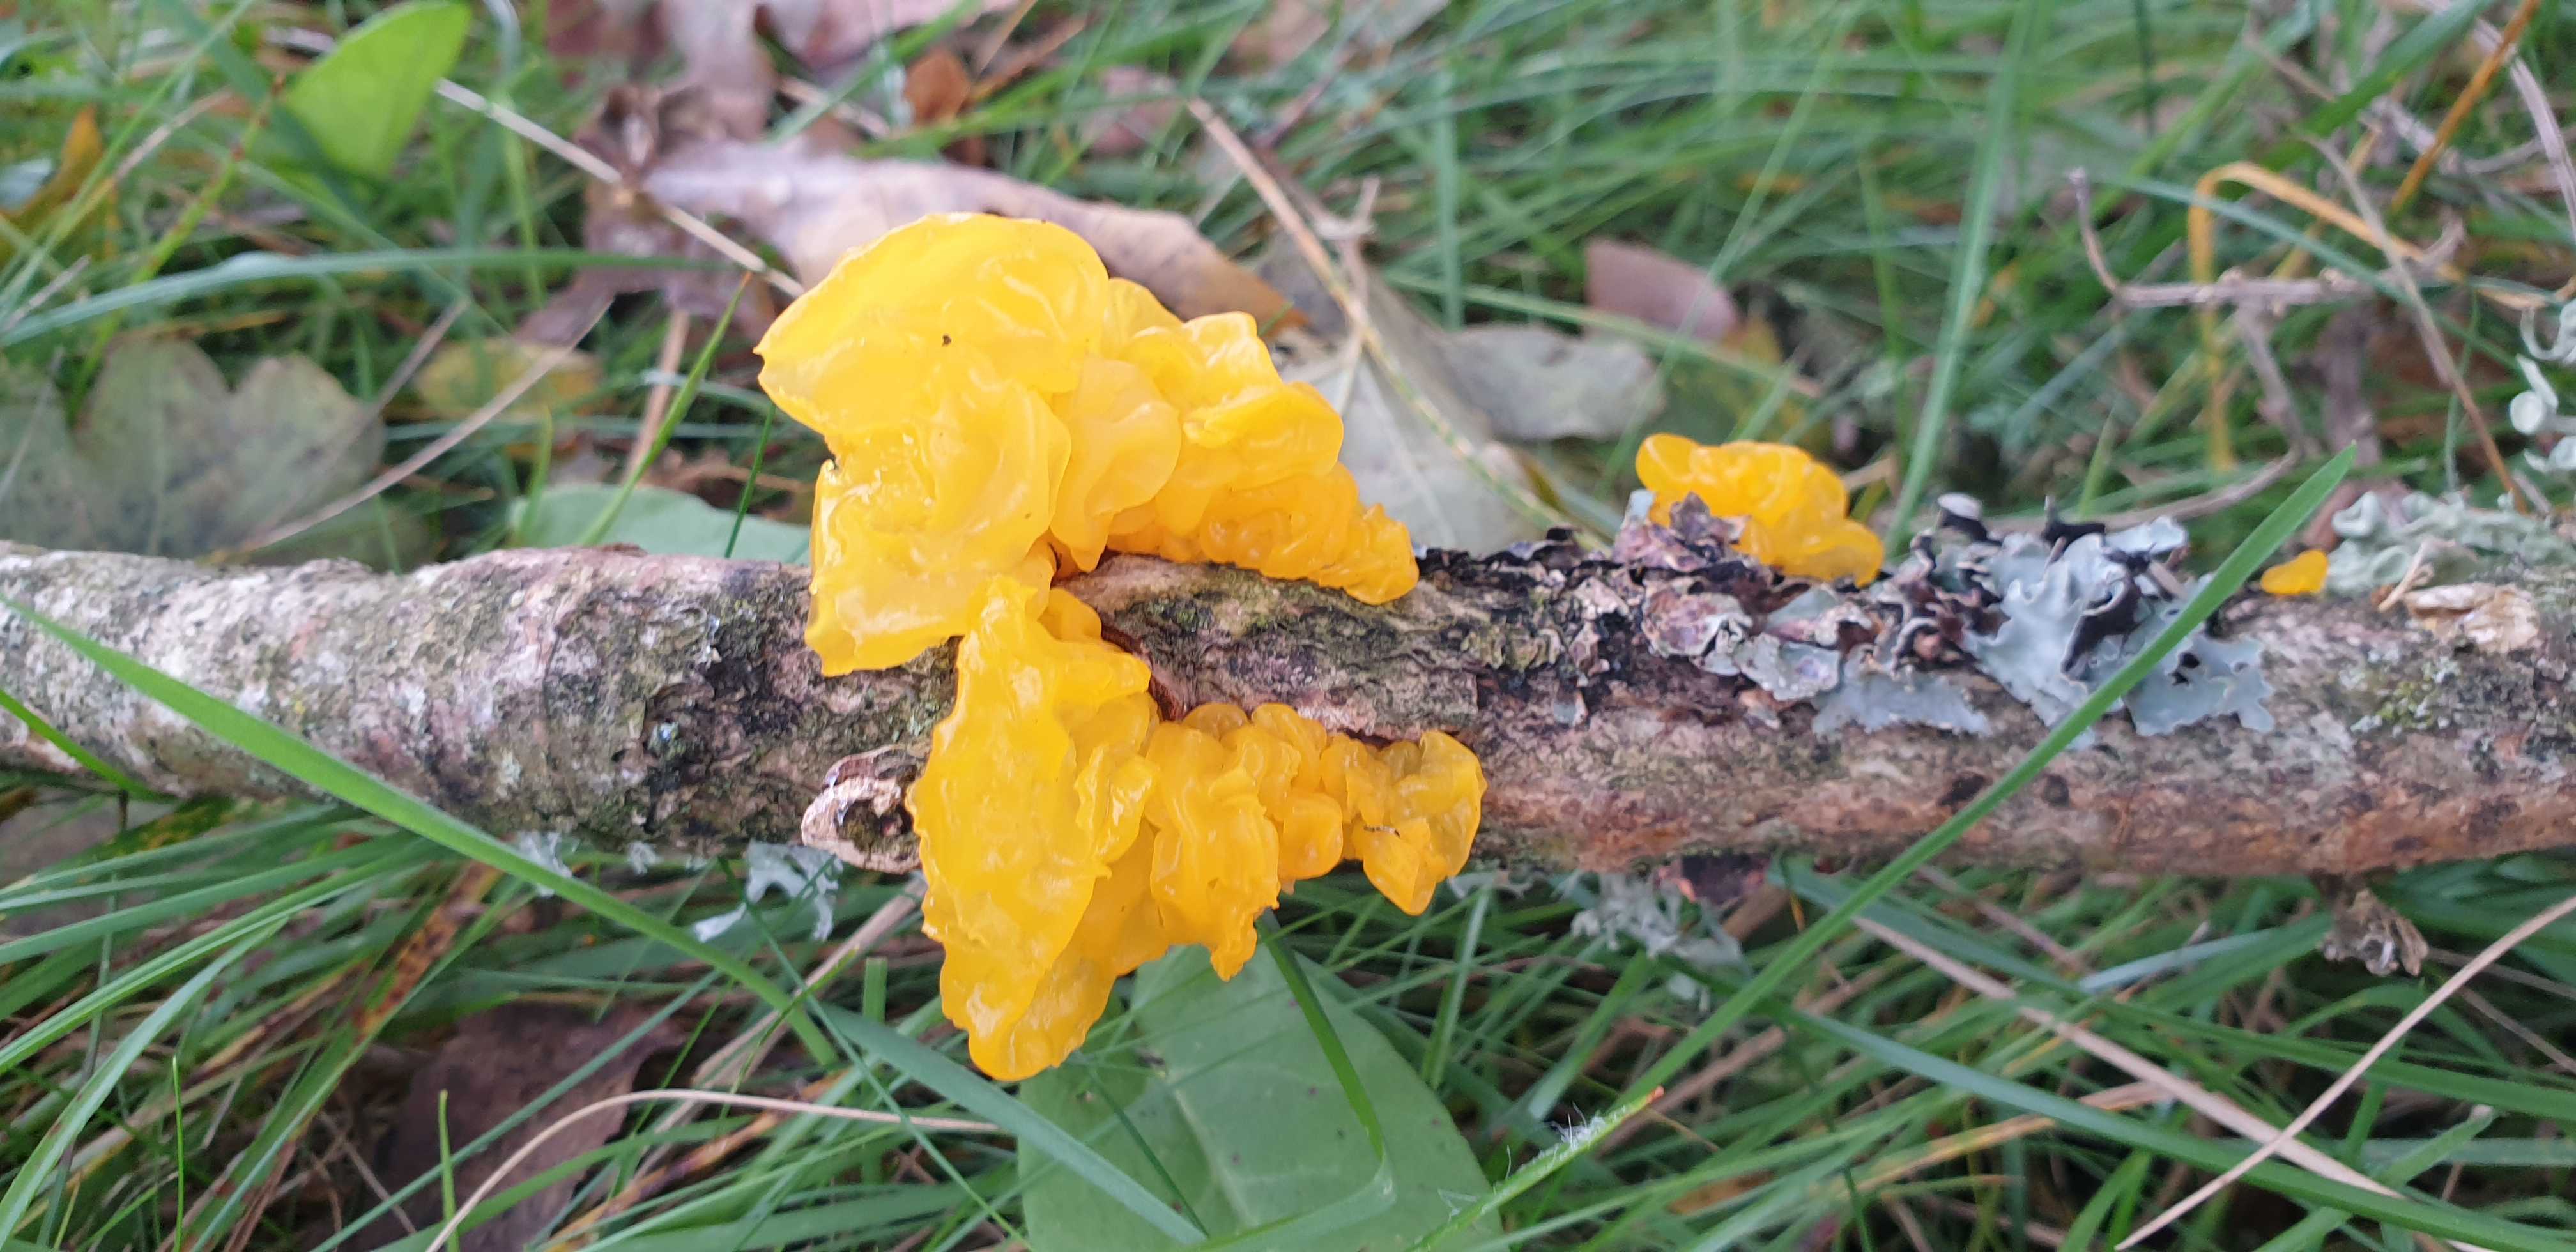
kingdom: Fungi
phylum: Basidiomycota
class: Tremellomycetes
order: Tremellales
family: Tremellaceae
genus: Tremella
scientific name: Tremella mesenterica
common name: gul bævresvamp
